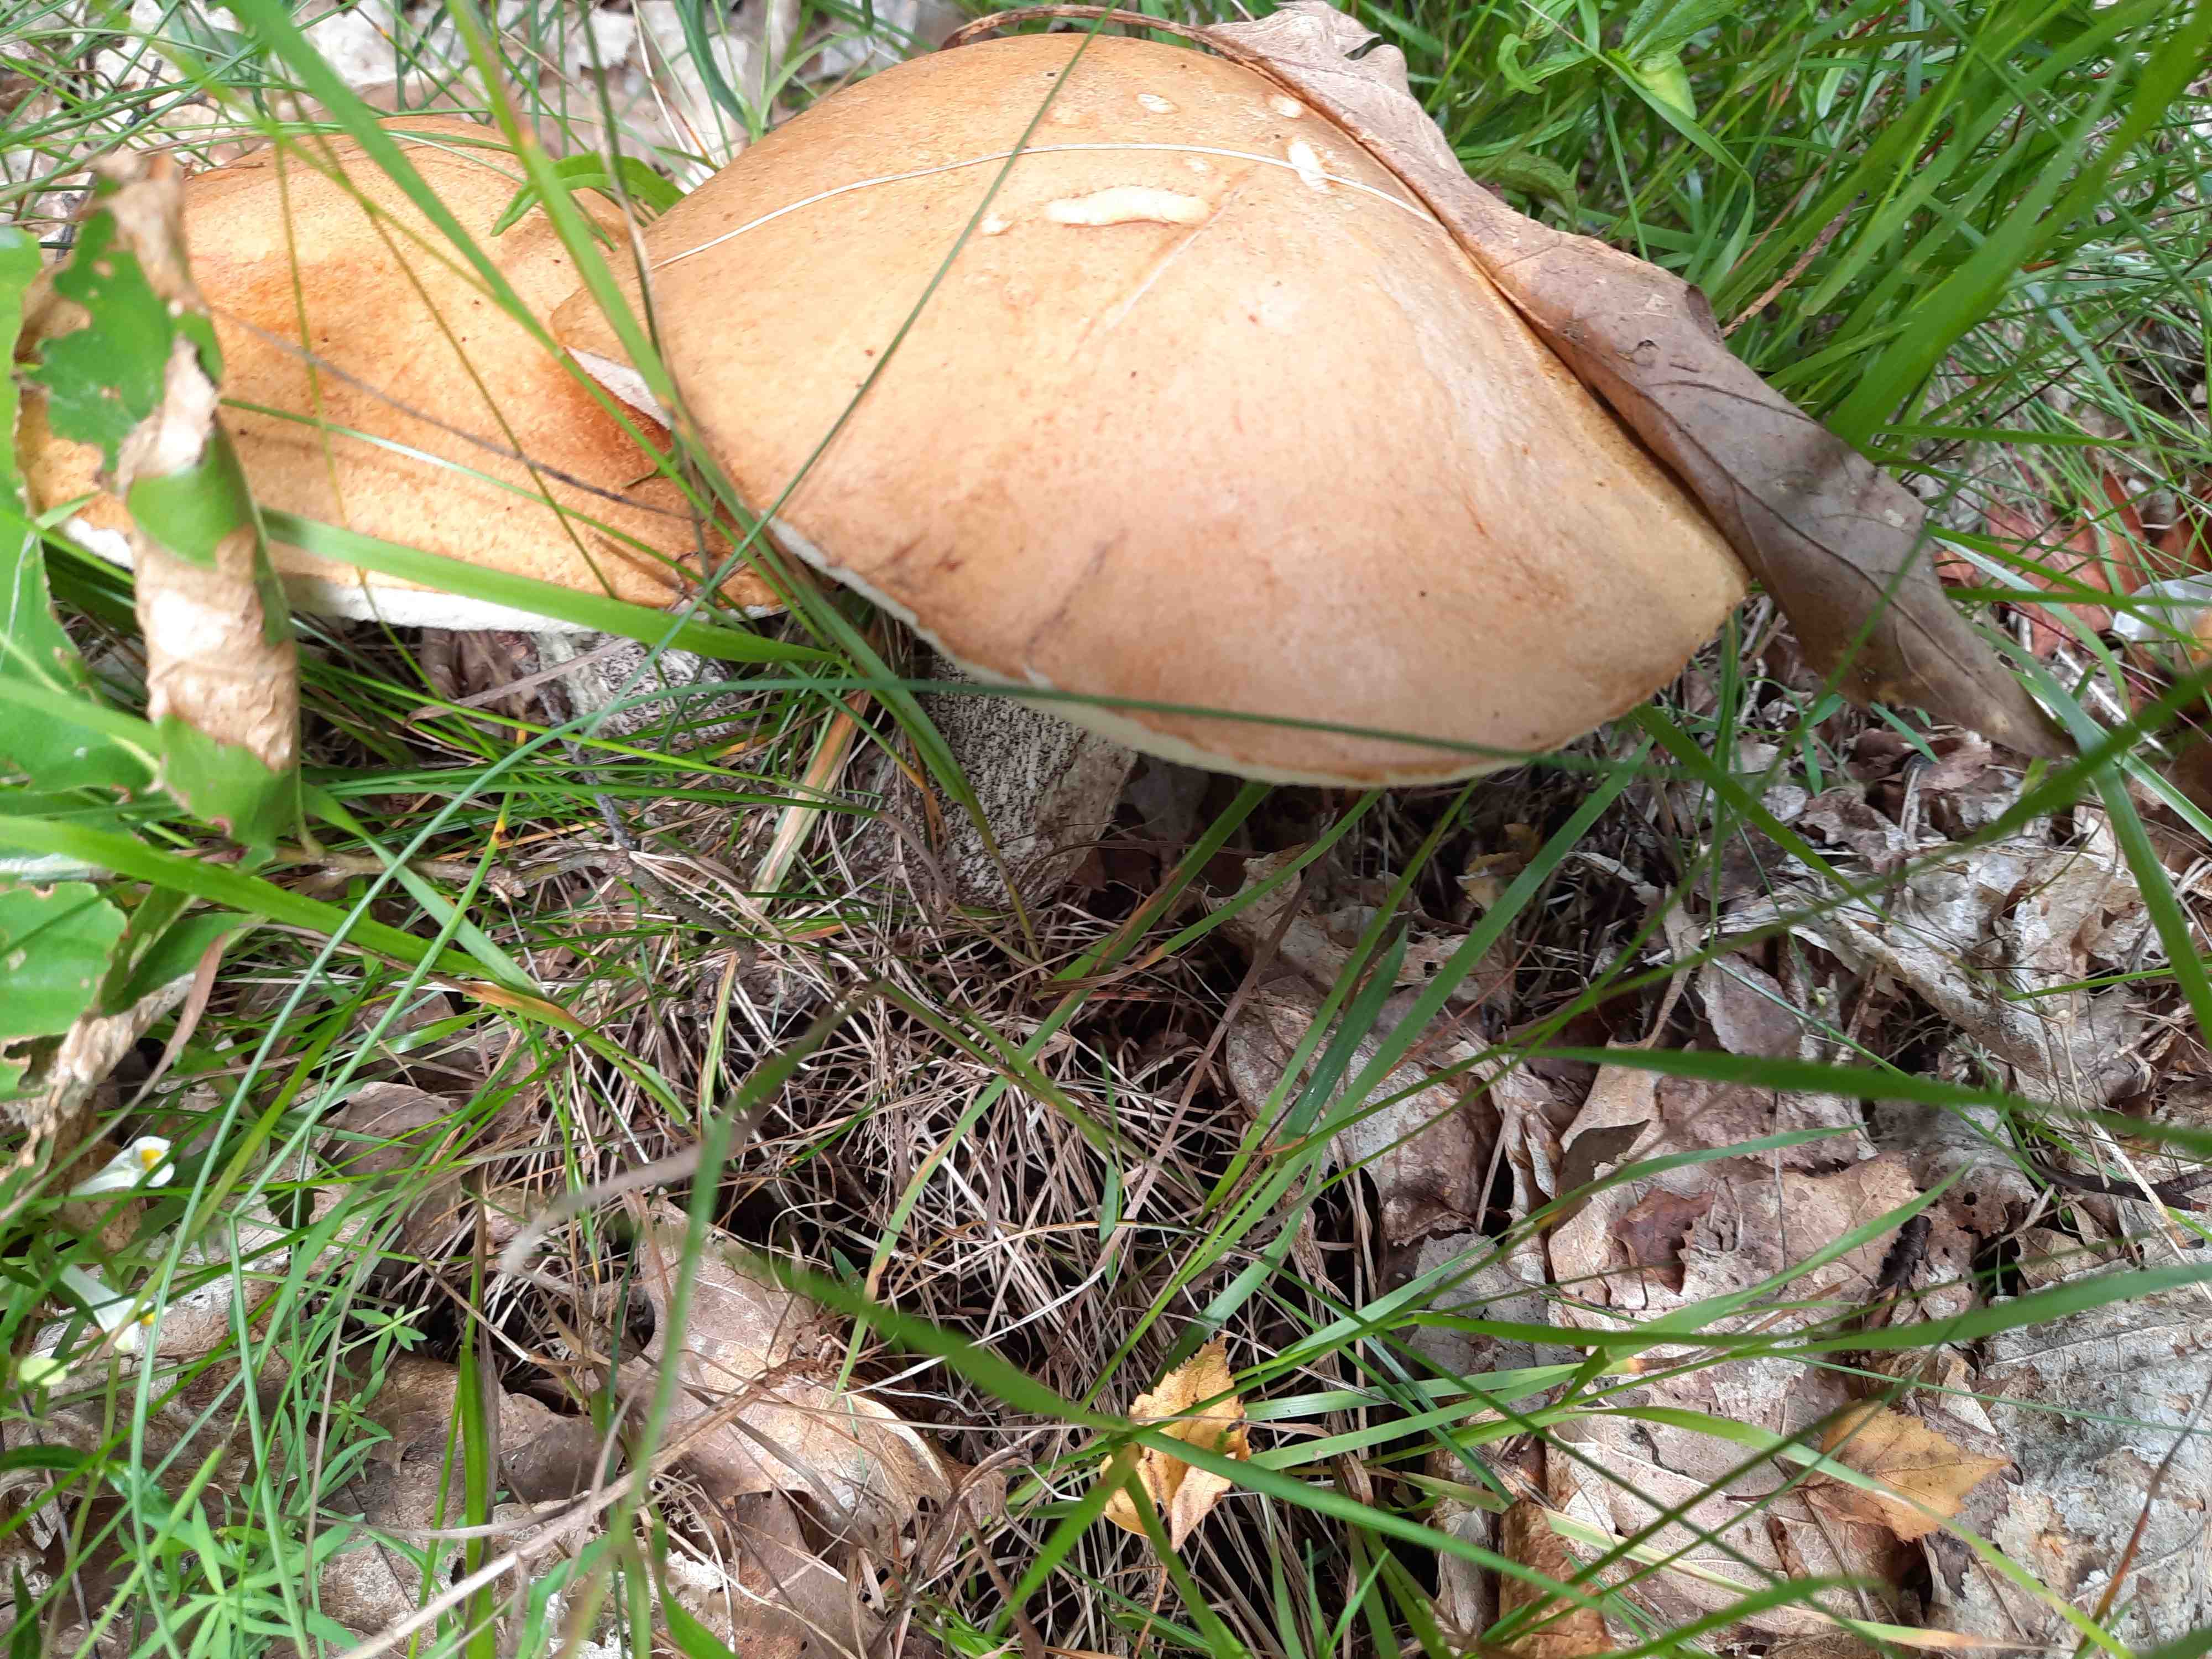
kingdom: Fungi
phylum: Basidiomycota
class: Agaricomycetes
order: Boletales
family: Boletaceae
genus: Leccinum
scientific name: Leccinum versipelle
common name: orange skælrørhat
